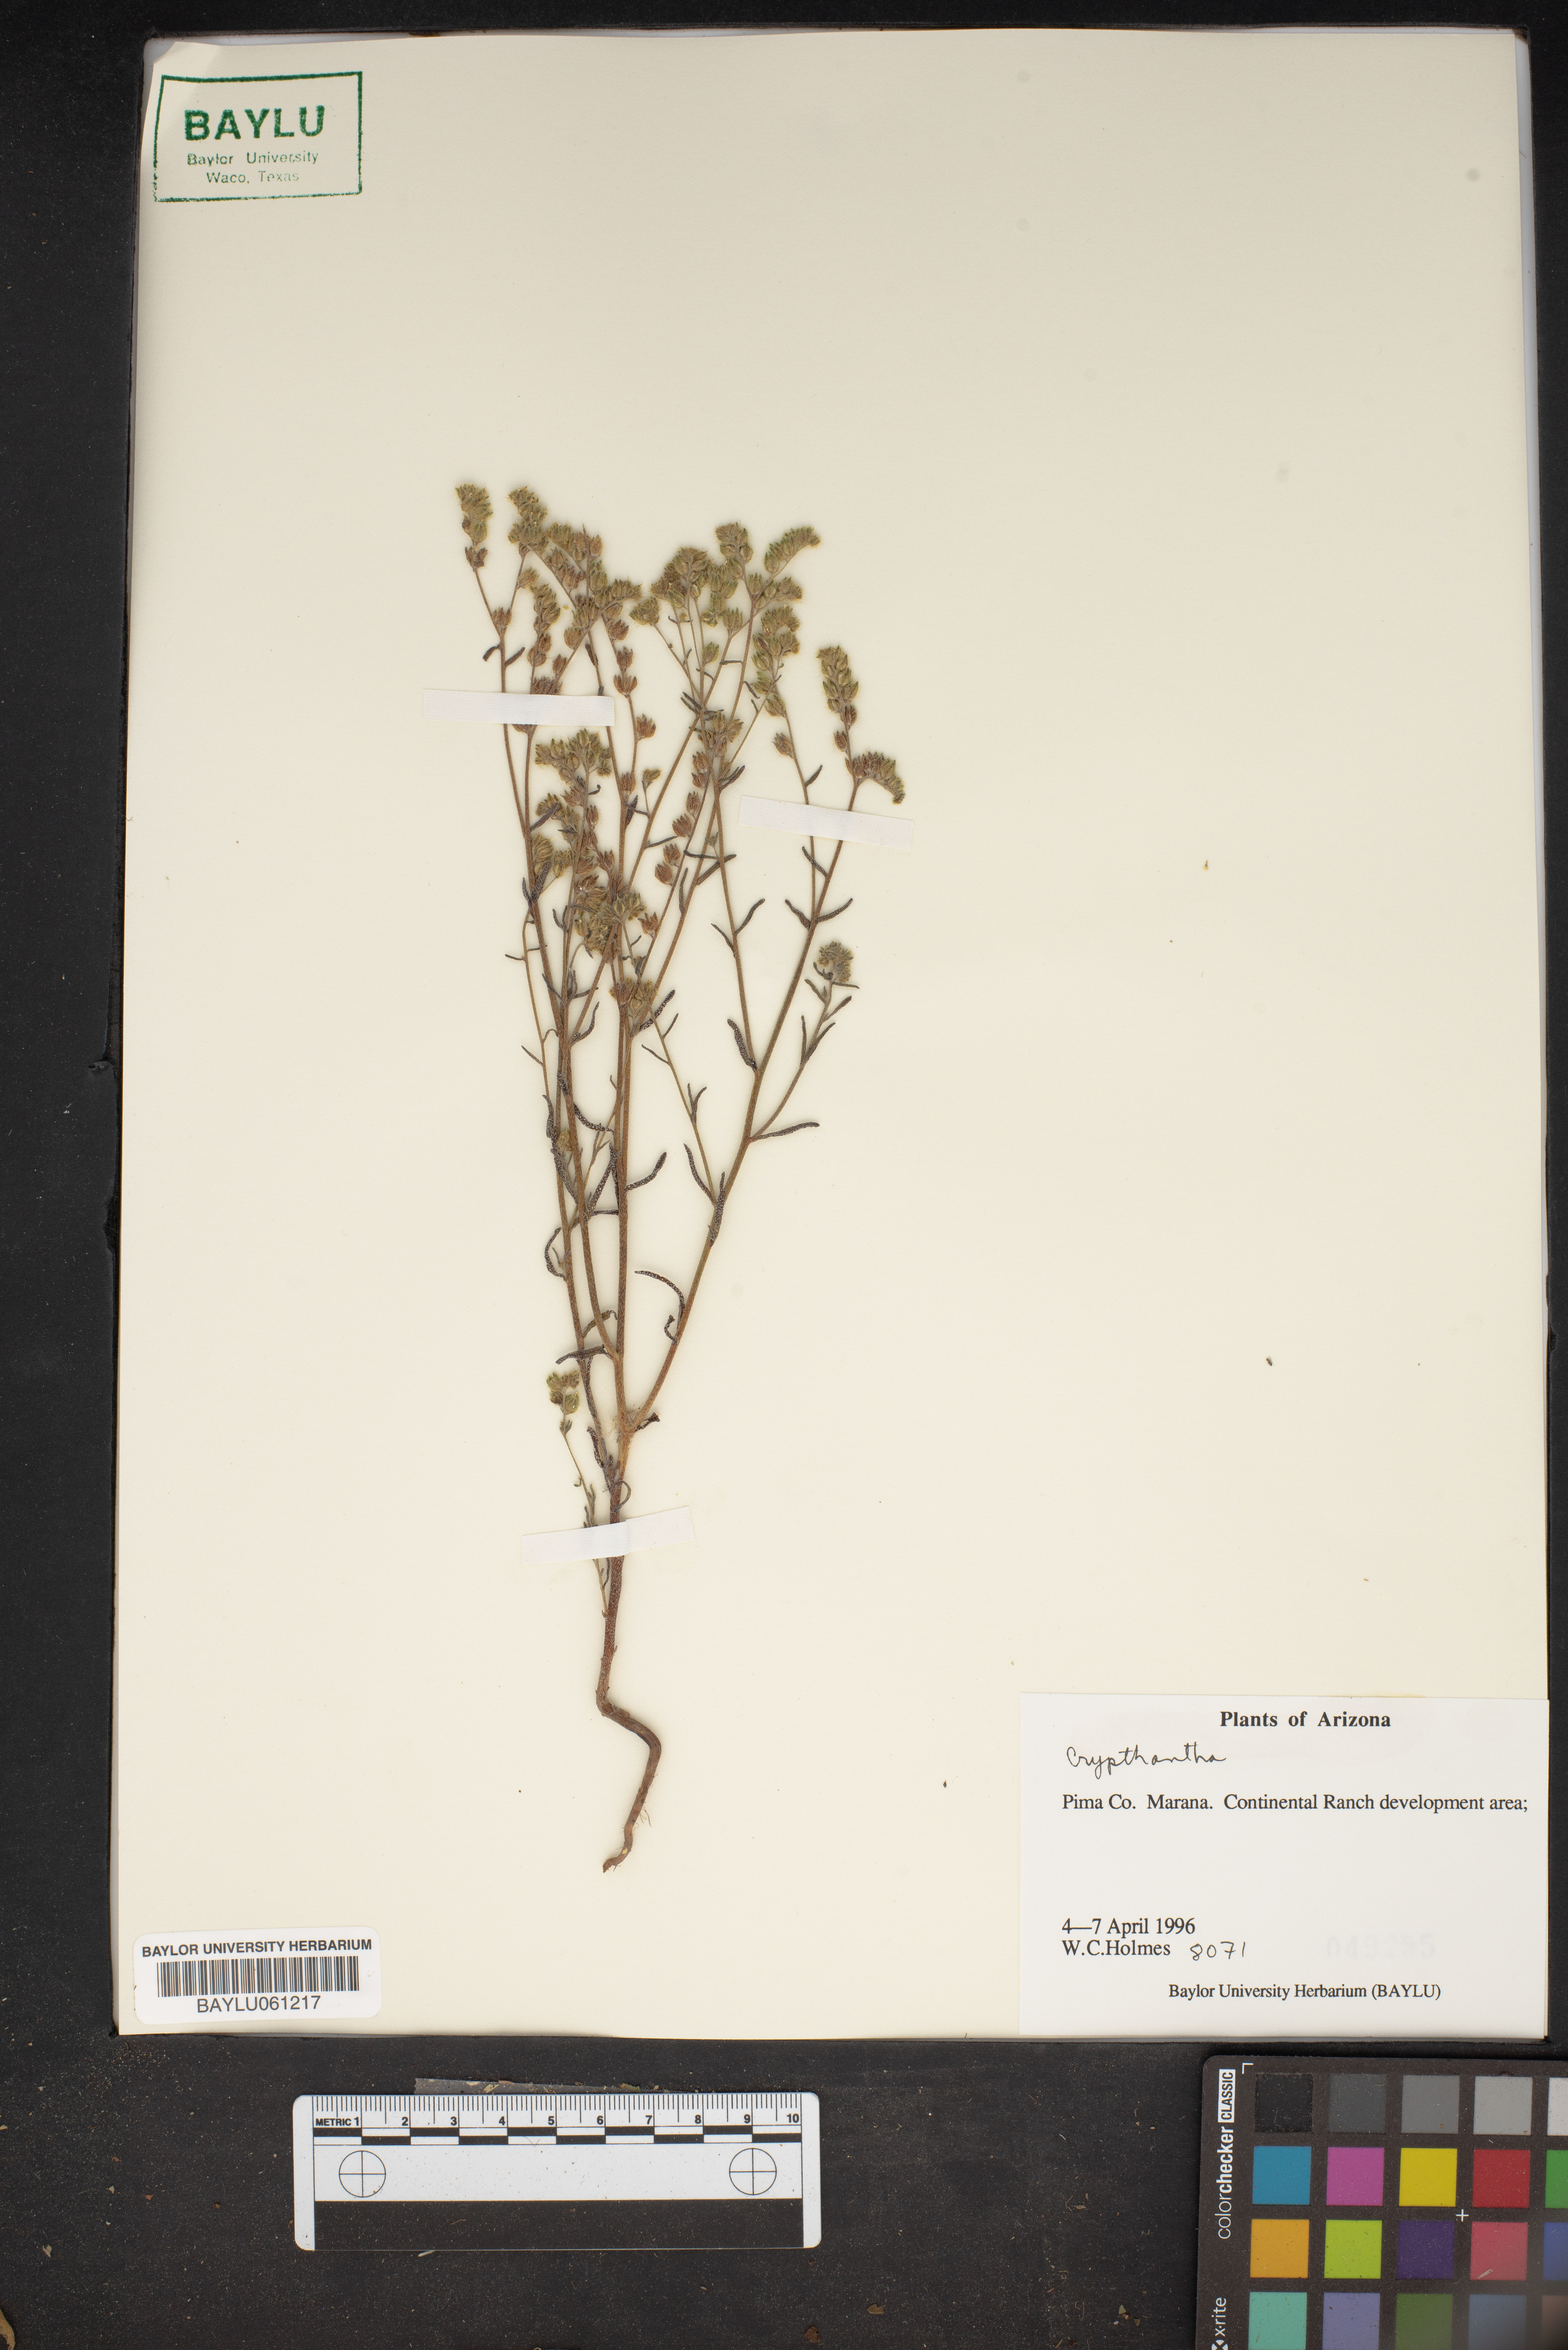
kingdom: Plantae
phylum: Tracheophyta
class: Magnoliopsida
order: Boraginales
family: Boraginaceae
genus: Cryptantha
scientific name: Cryptantha
